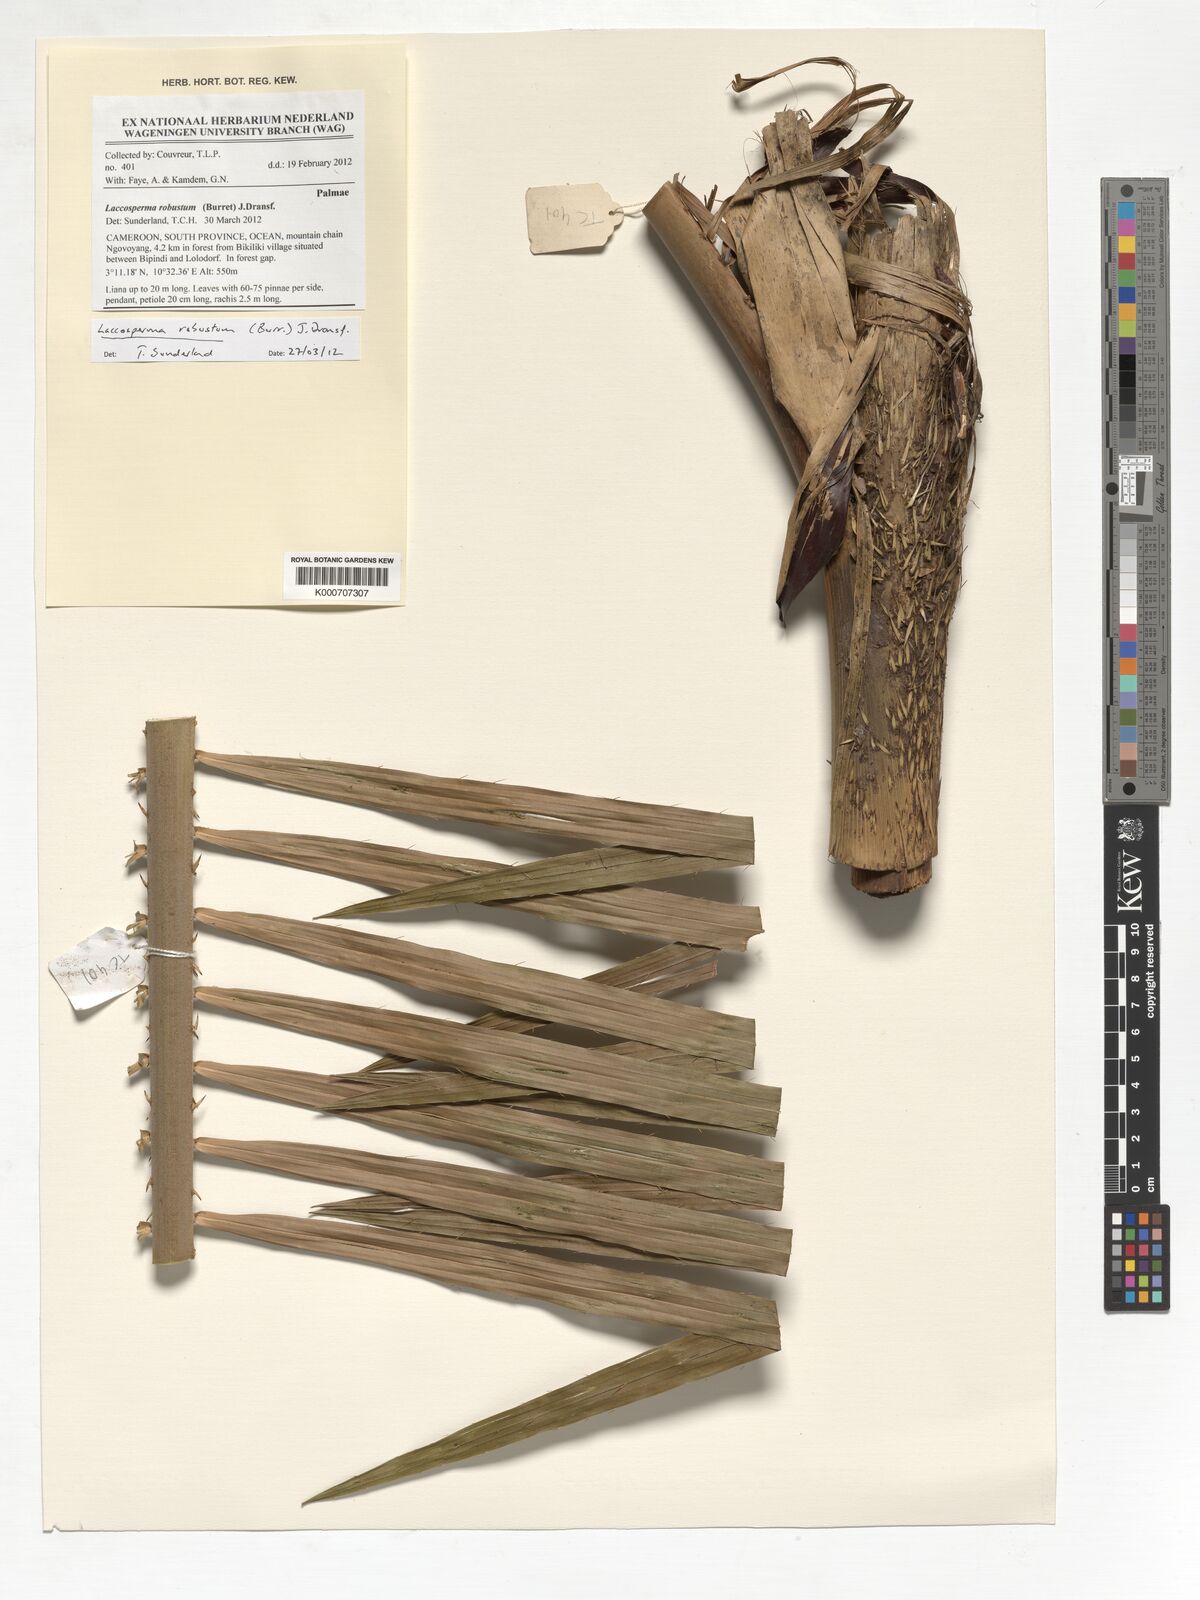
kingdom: Plantae
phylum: Tracheophyta
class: Liliopsida
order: Arecales
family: Arecaceae
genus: Laccosperma
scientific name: Laccosperma robustum
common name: Rattan
